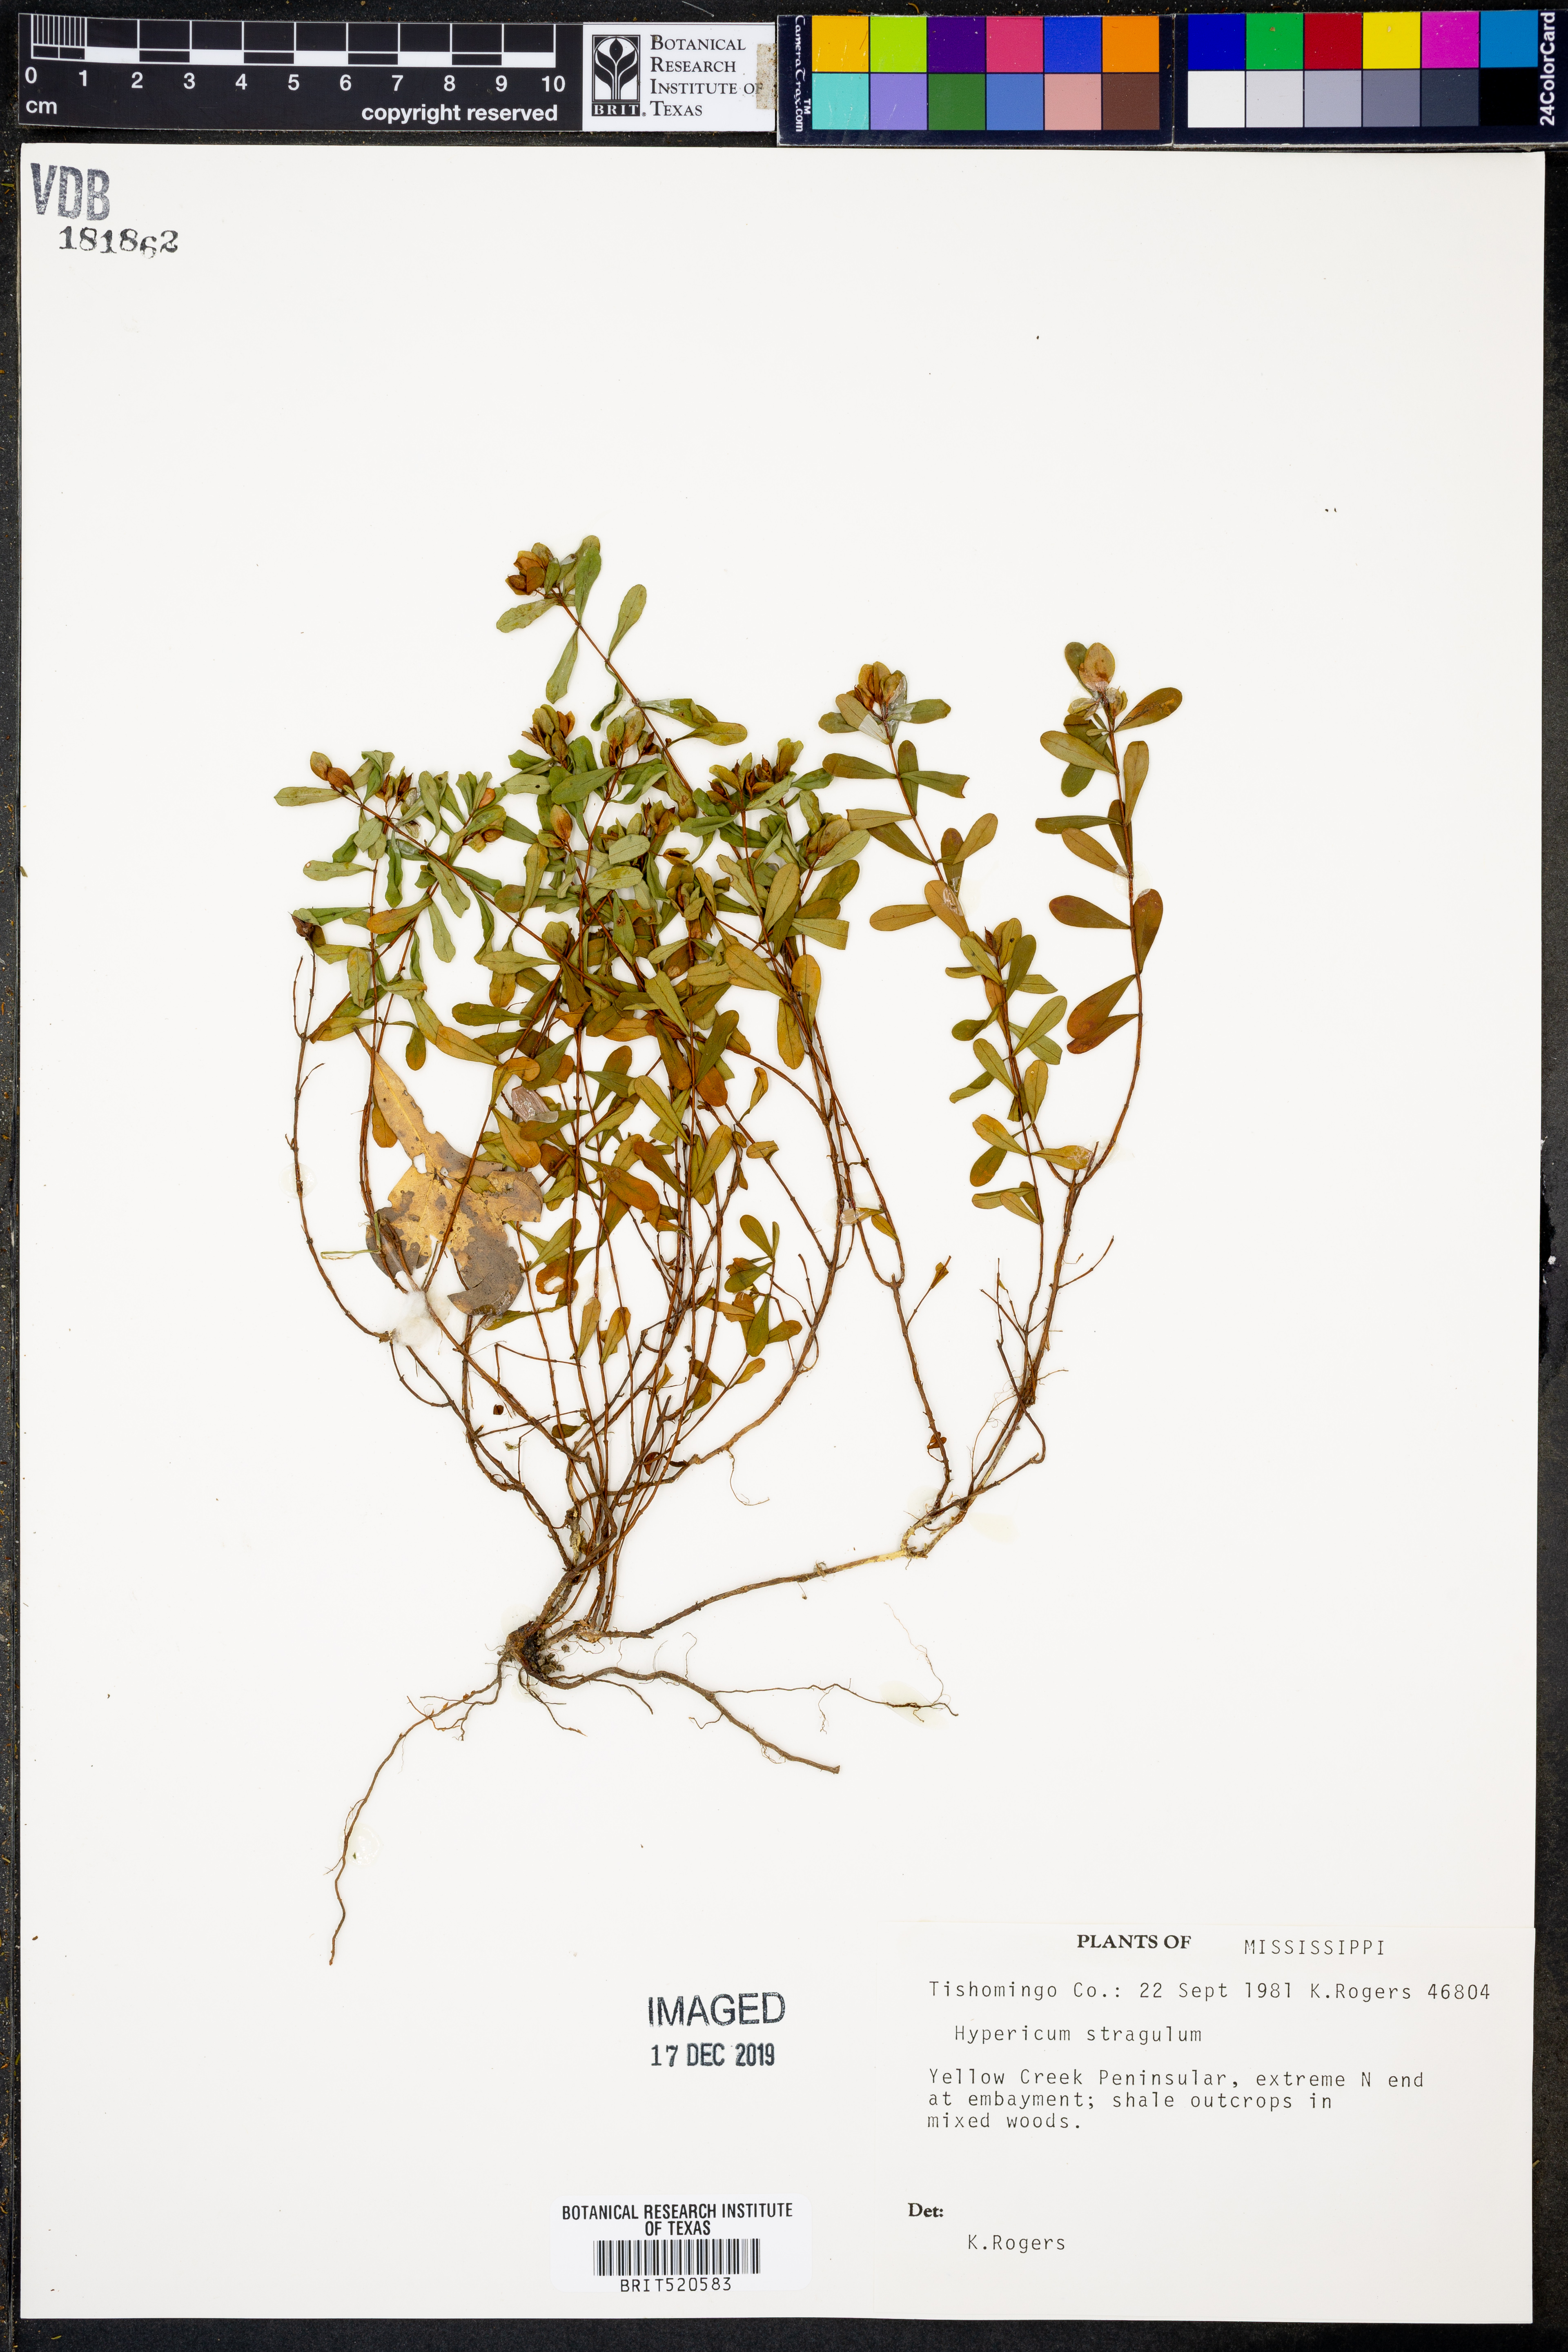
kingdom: Plantae
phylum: Tracheophyta
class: Magnoliopsida
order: Malpighiales
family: Hypericaceae
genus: Hypericum
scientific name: Hypericum hypericoides
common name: St. andrew's cross
